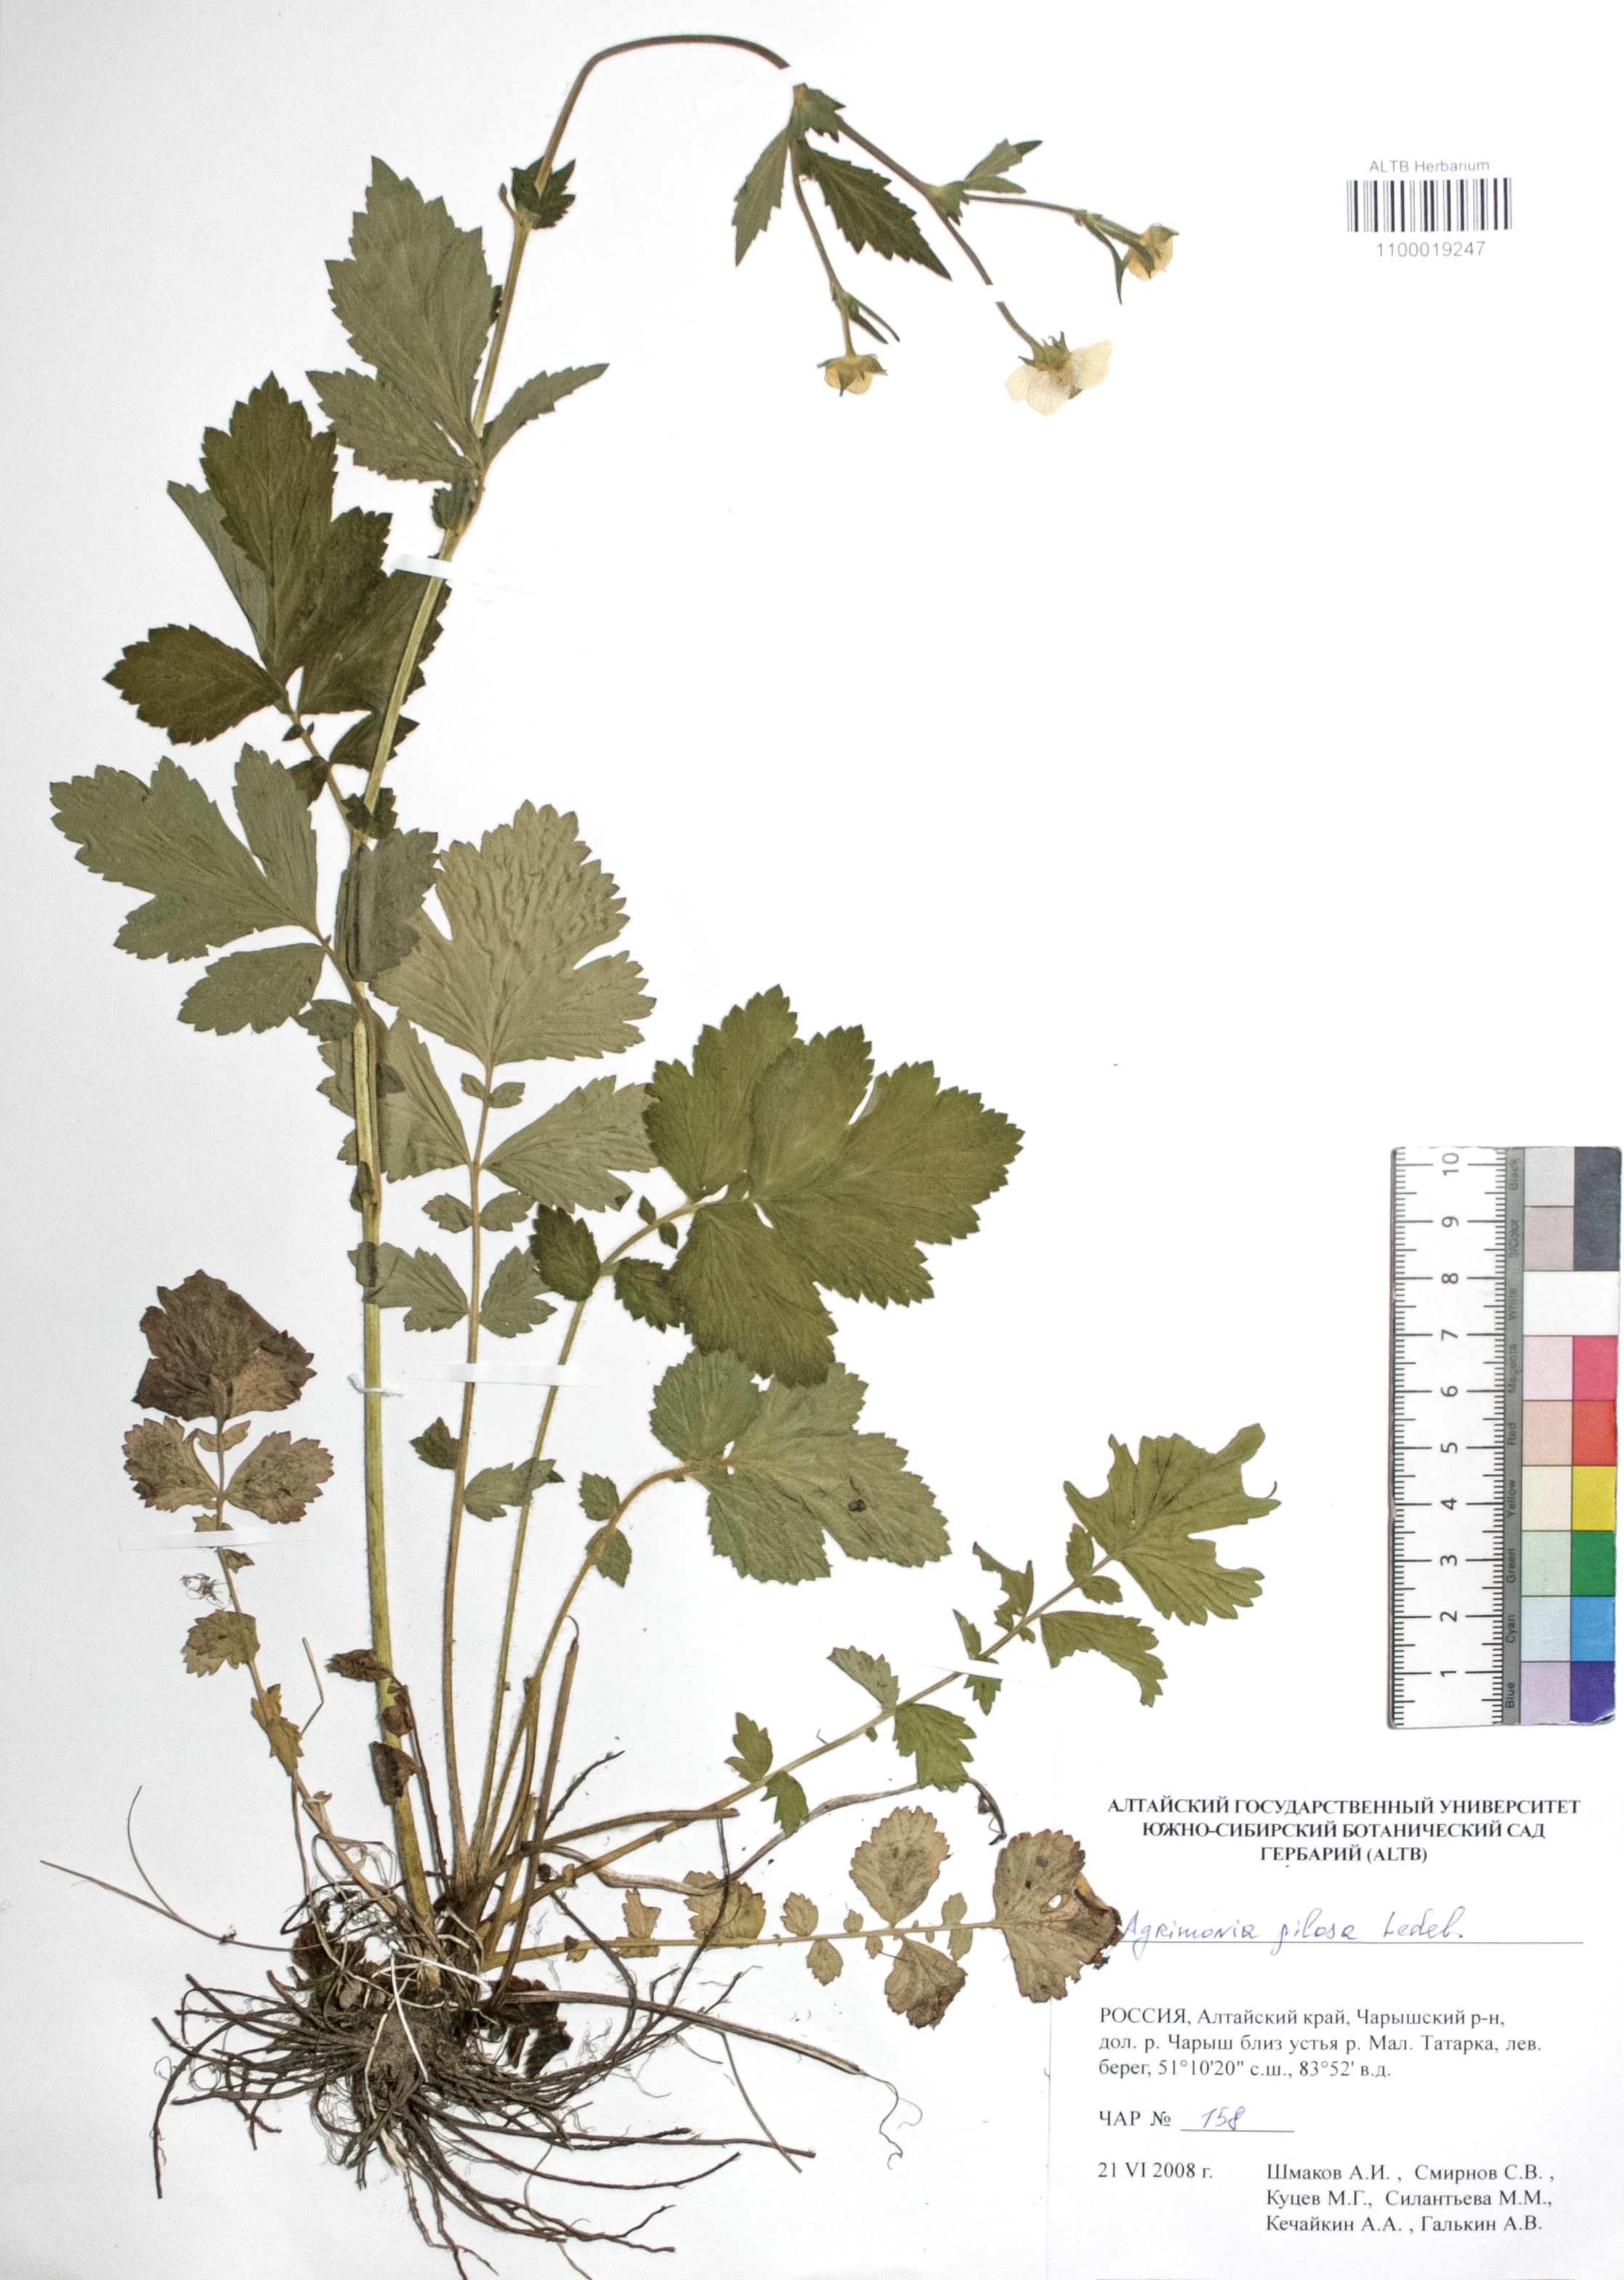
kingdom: Plantae
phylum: Tracheophyta
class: Magnoliopsida
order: Rosales
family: Rosaceae
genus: Agrimonia
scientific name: Agrimonia pilosa
